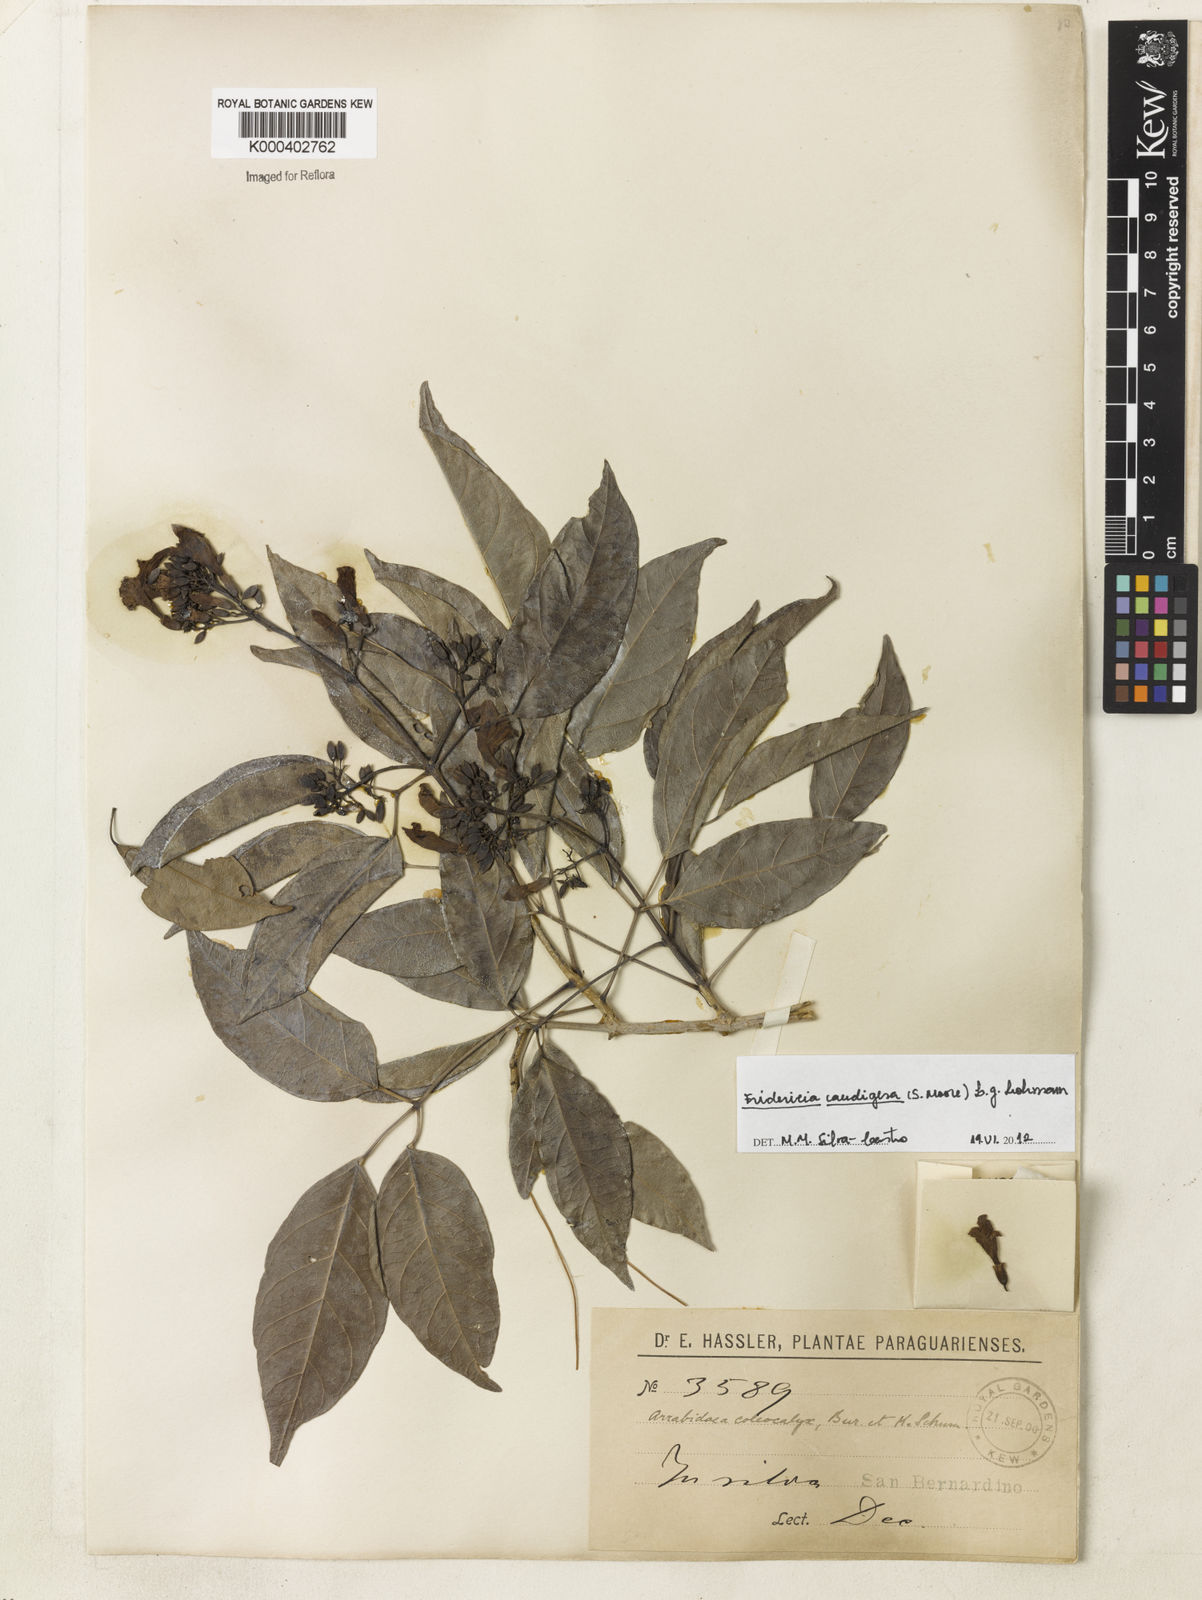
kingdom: Plantae
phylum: Tracheophyta
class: Magnoliopsida
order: Lamiales
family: Bignoniaceae
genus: Fridericia
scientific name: Fridericia caudigera
